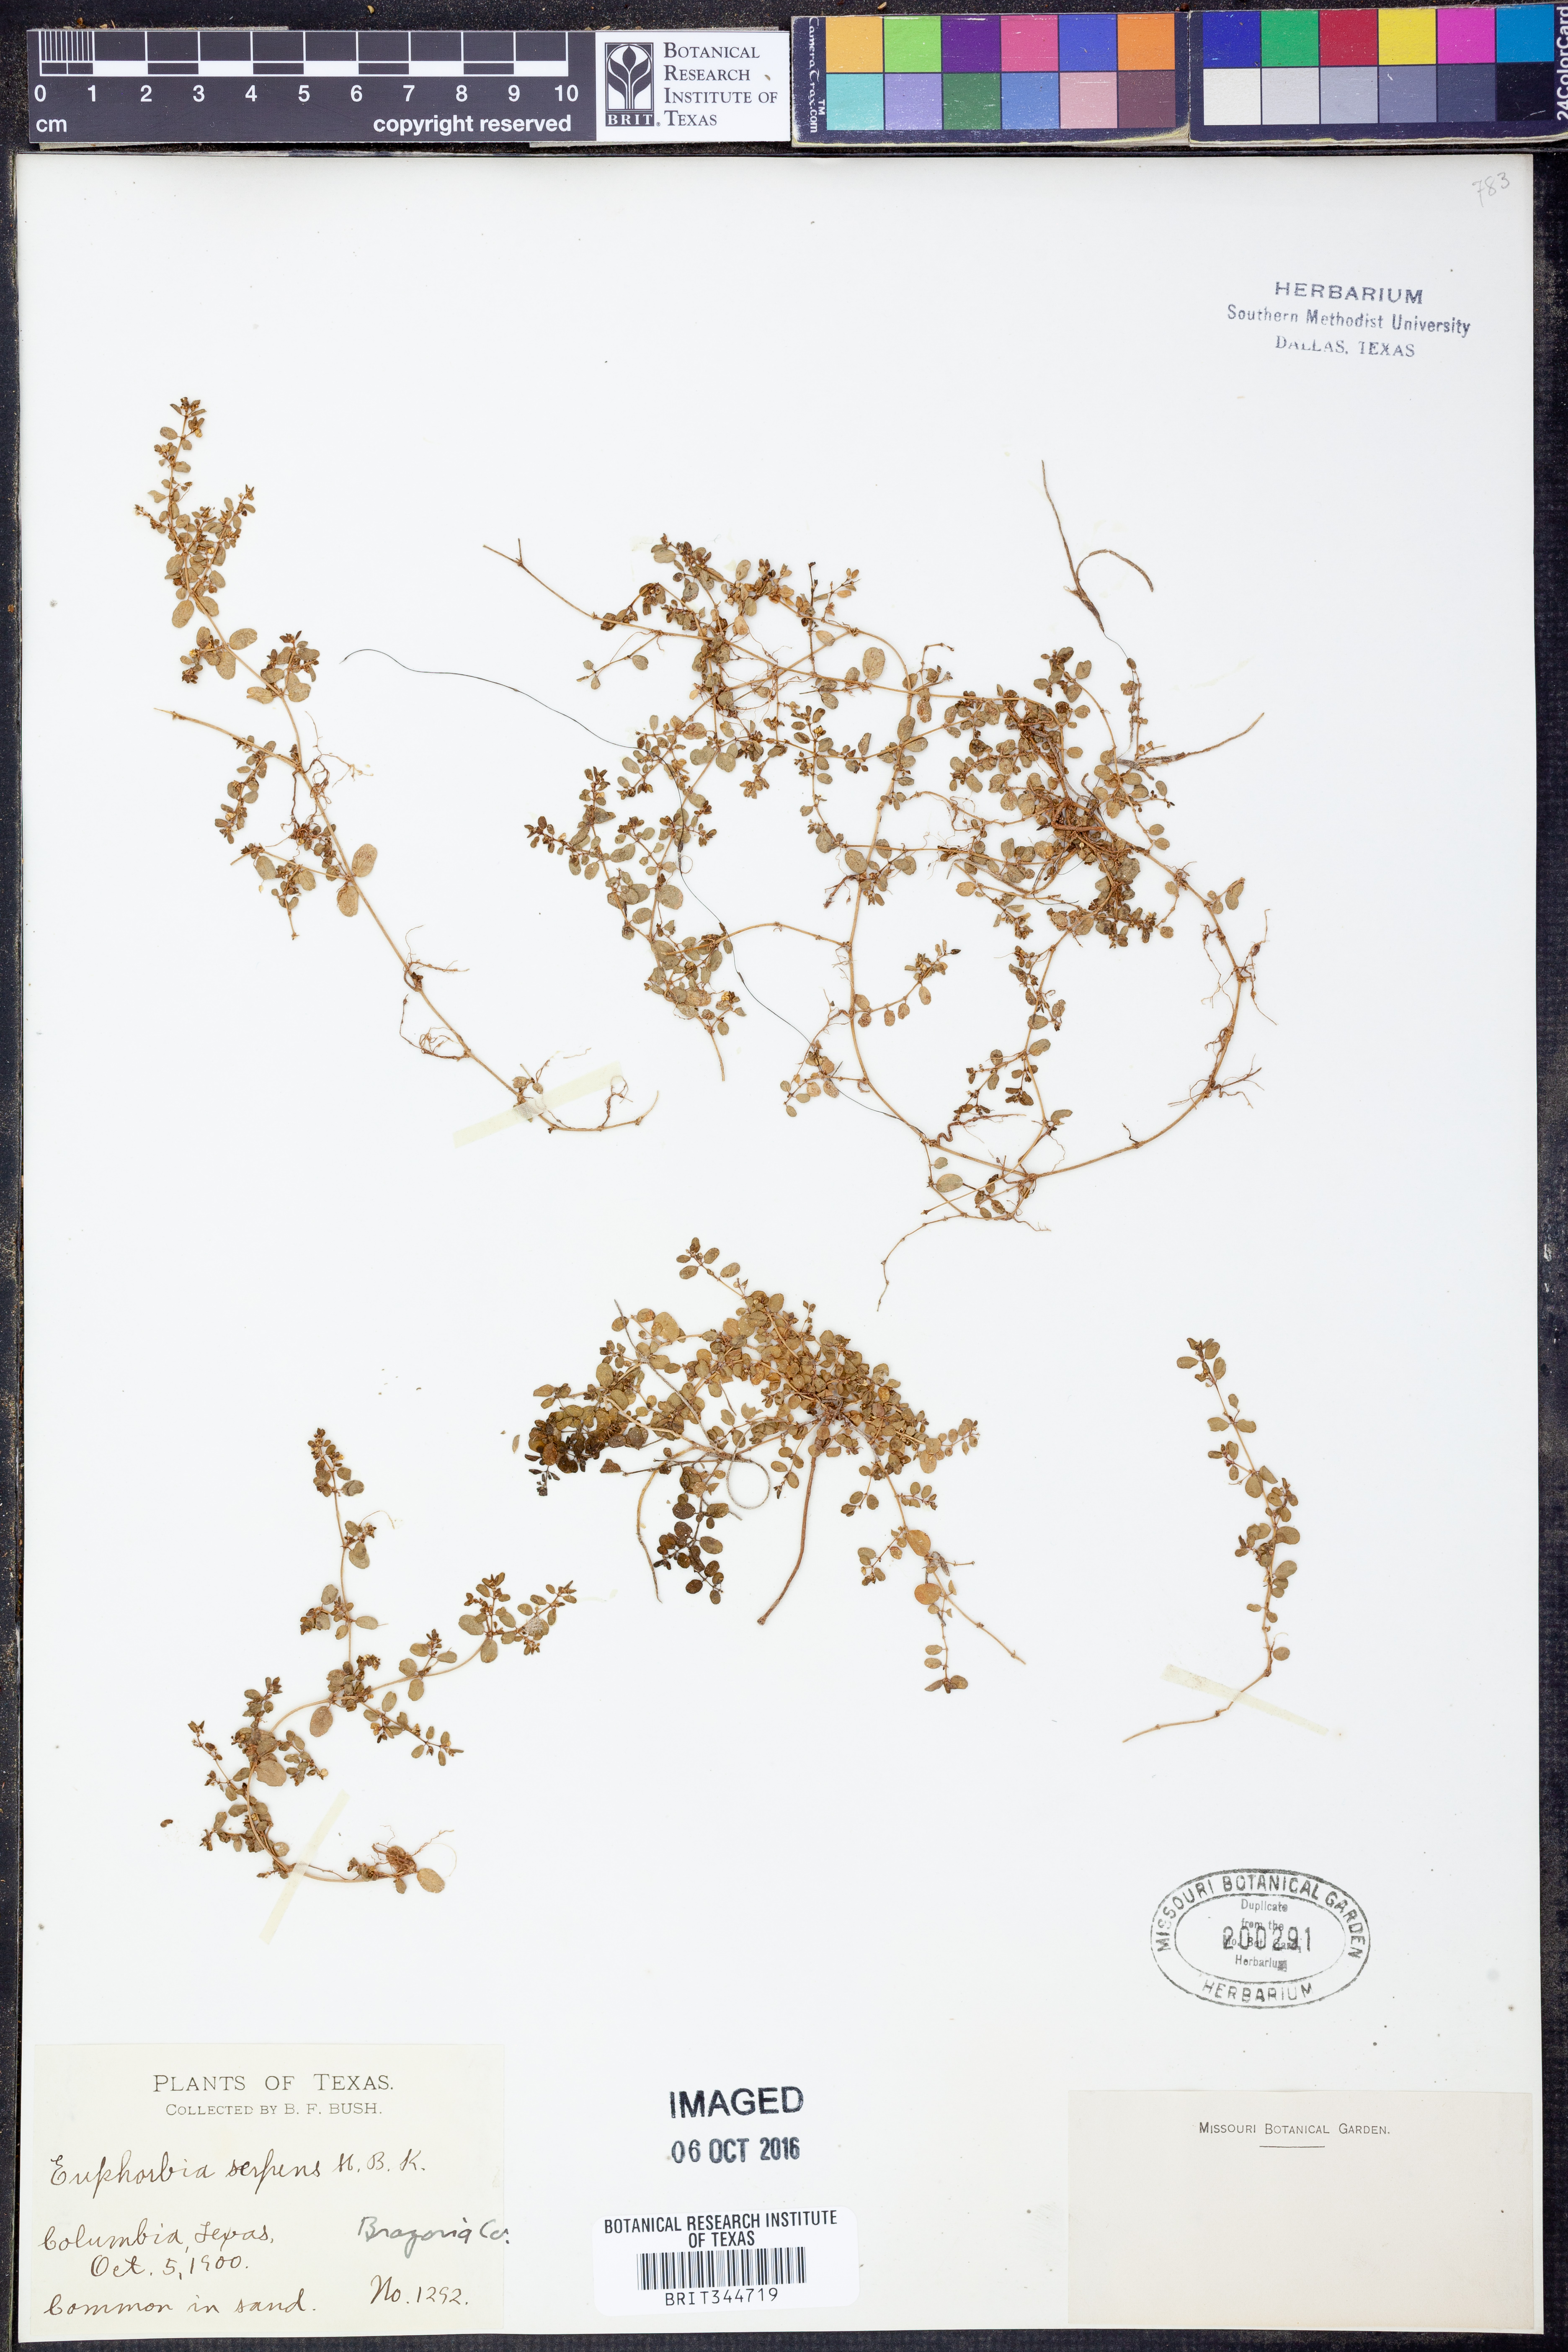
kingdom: Plantae
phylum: Tracheophyta
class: Magnoliopsida
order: Malpighiales
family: Euphorbiaceae
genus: Euphorbia
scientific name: Euphorbia serpens
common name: Matted sandmat
